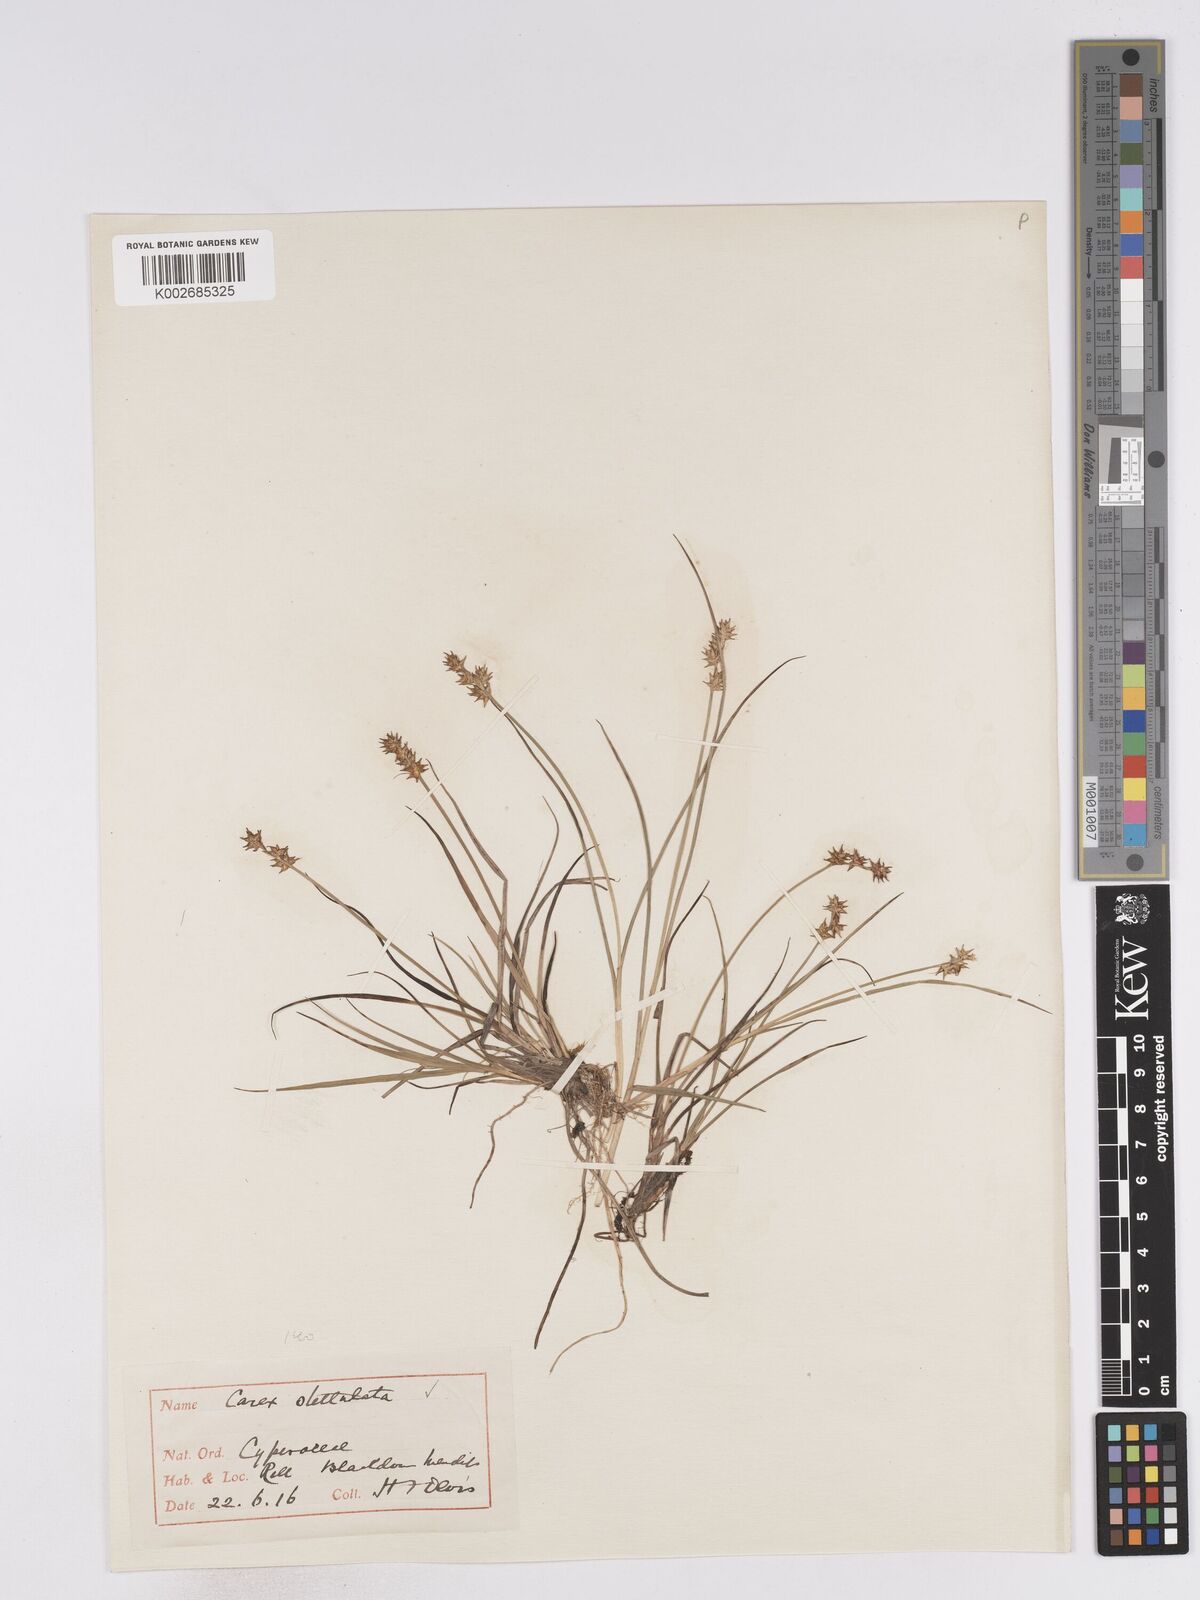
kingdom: Plantae
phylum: Tracheophyta
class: Liliopsida
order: Poales
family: Cyperaceae
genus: Carex
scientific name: Carex echinata
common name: Star sedge
